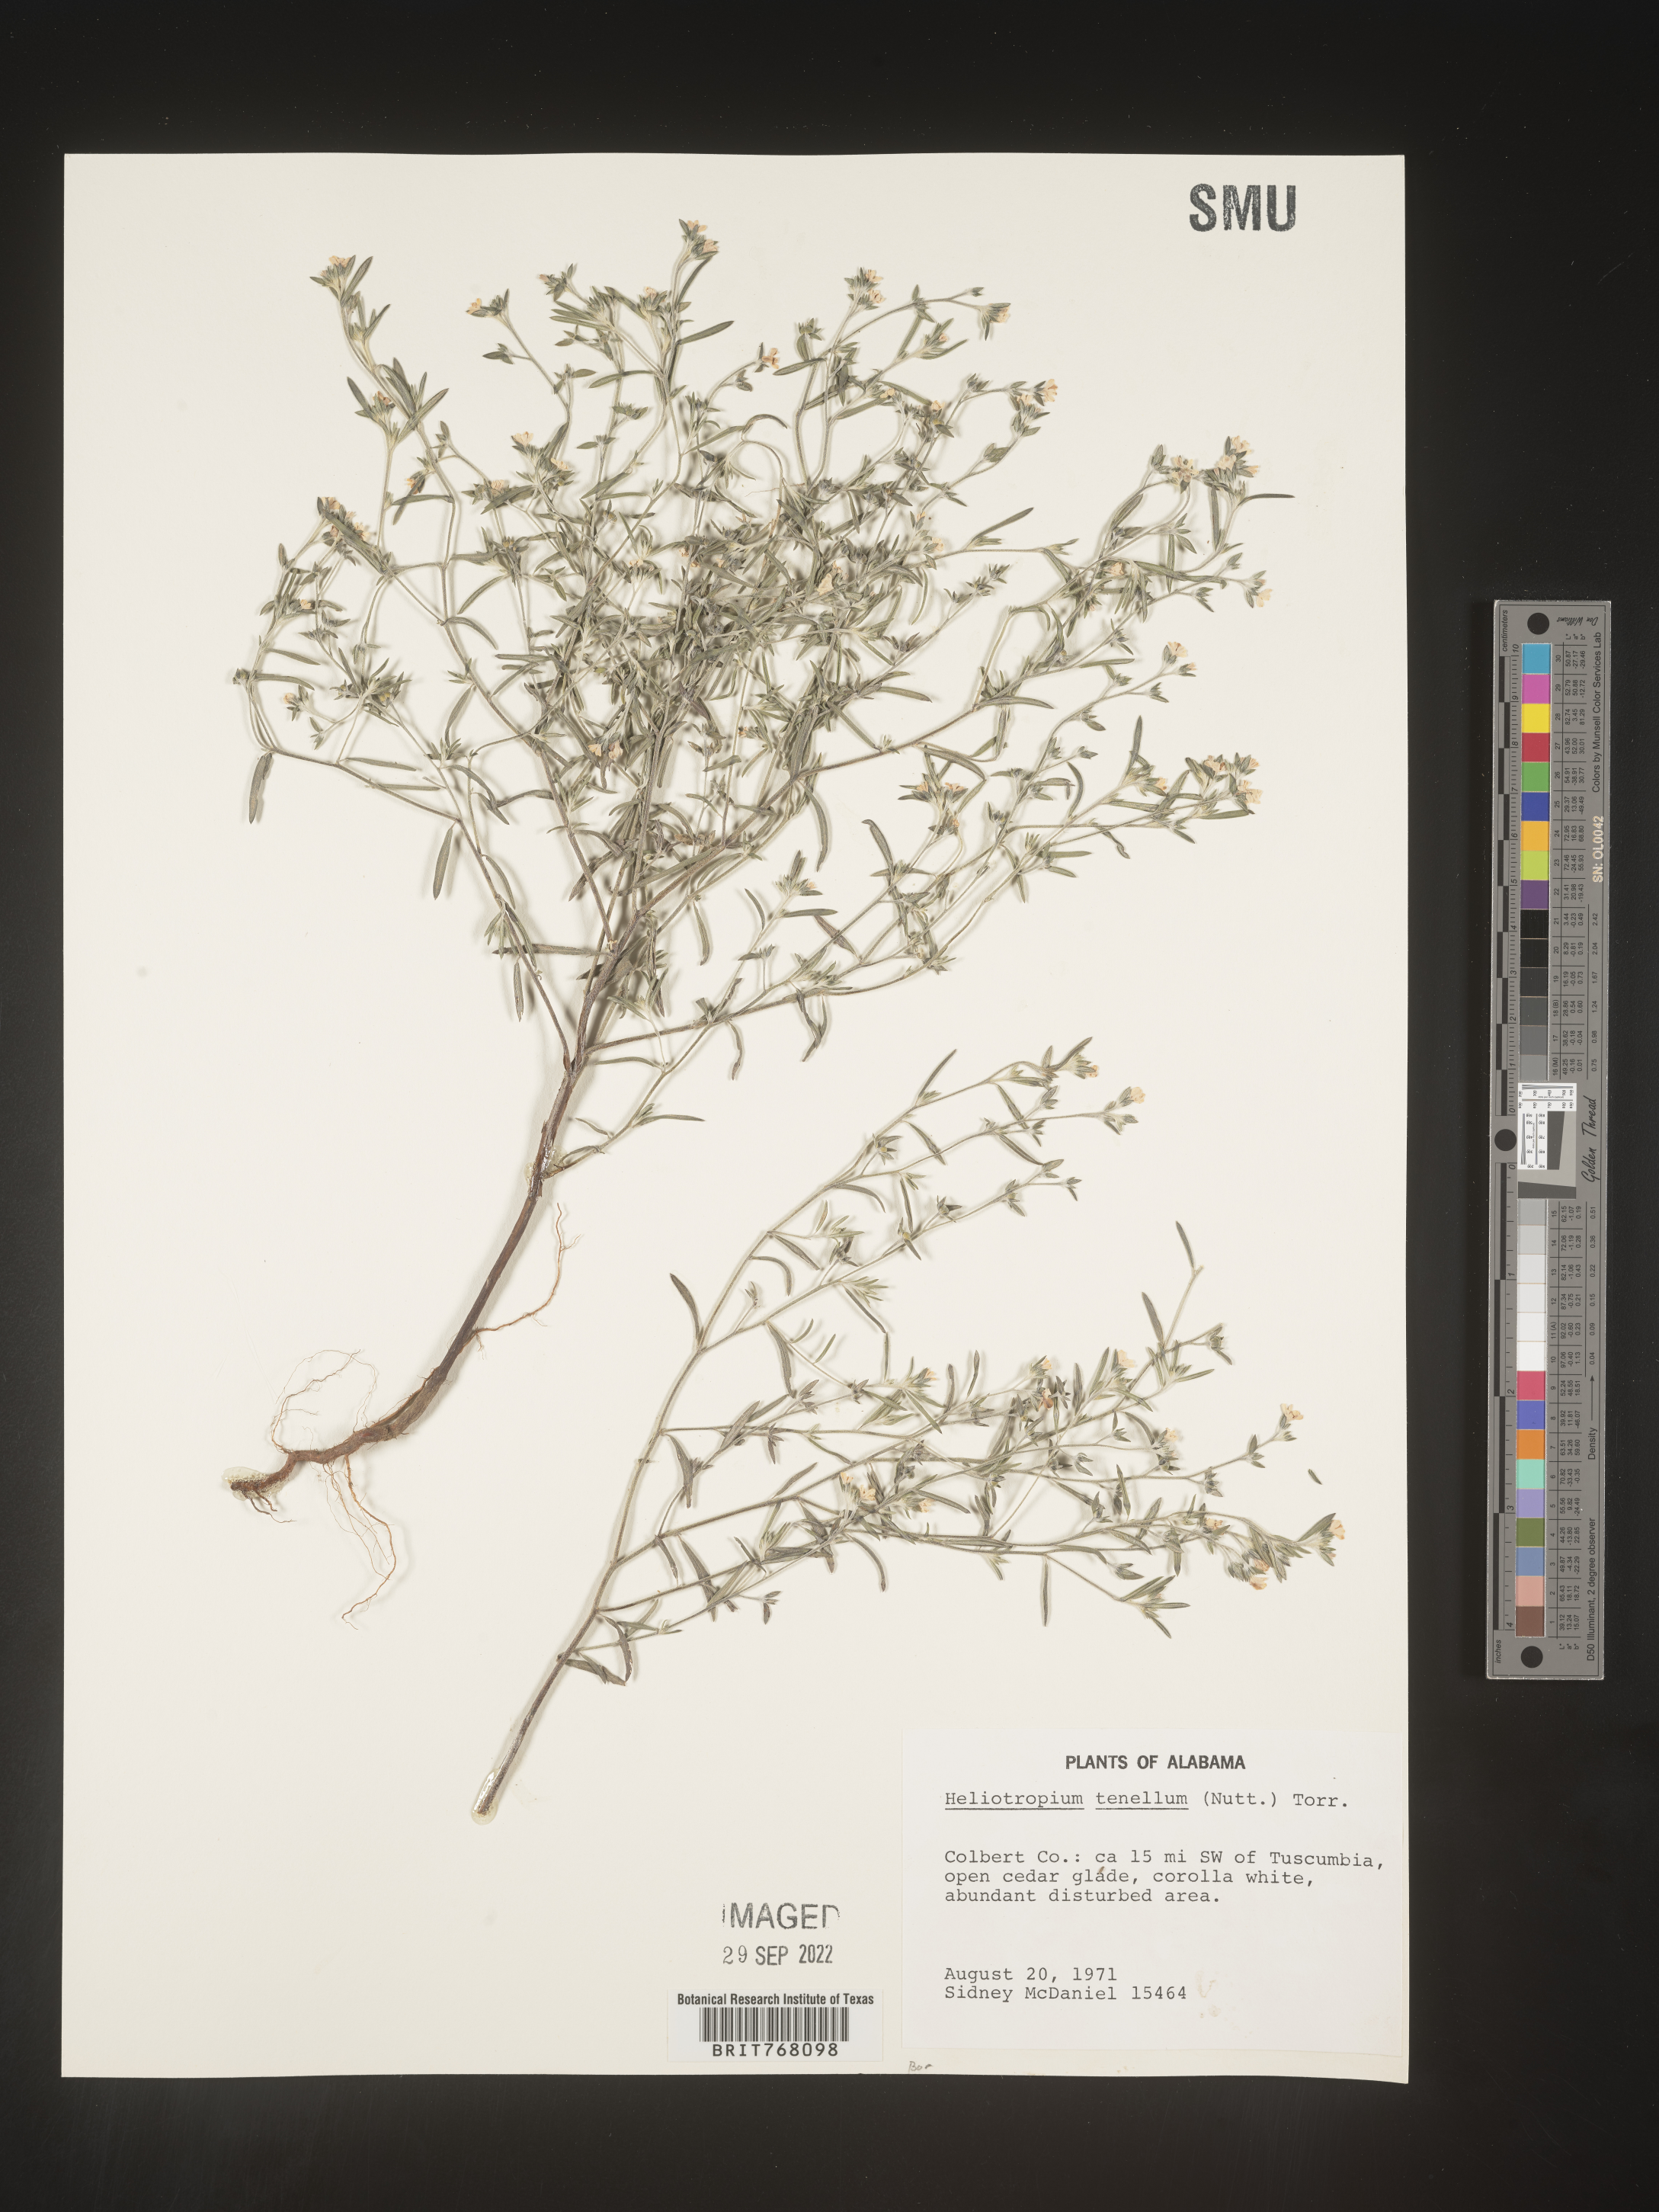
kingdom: Plantae
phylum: Tracheophyta
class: Magnoliopsida
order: Boraginales
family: Heliotropiaceae
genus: Euploca
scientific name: Euploca tenella
